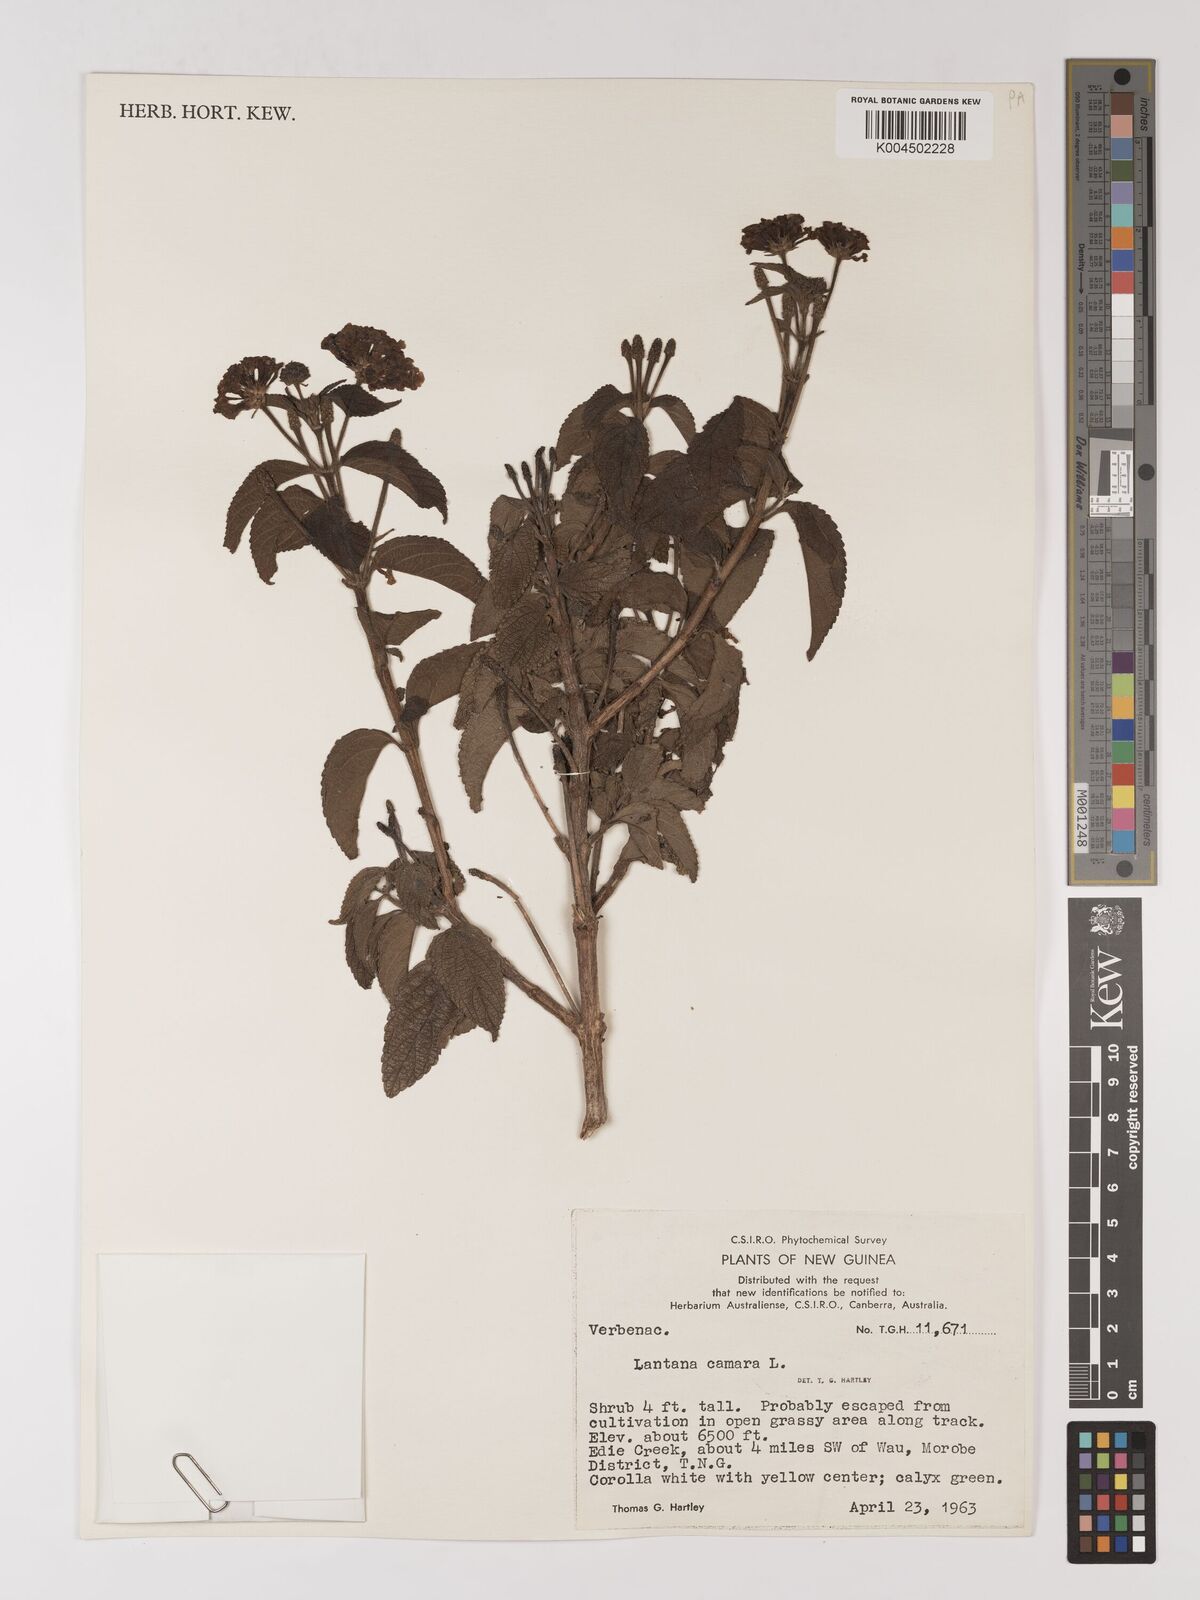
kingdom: Plantae
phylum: Tracheophyta
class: Magnoliopsida
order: Lamiales
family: Verbenaceae
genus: Lantana
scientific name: Lantana camara
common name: Lantana
